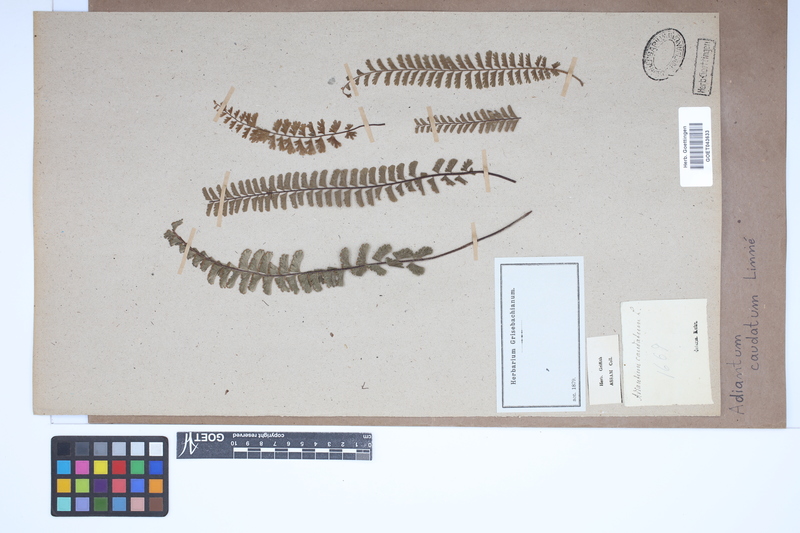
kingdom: Plantae
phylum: Tracheophyta
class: Polypodiopsida
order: Polypodiales
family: Pteridaceae
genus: Adiantum
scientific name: Adiantum caudatum
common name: Tailed maidenhair
